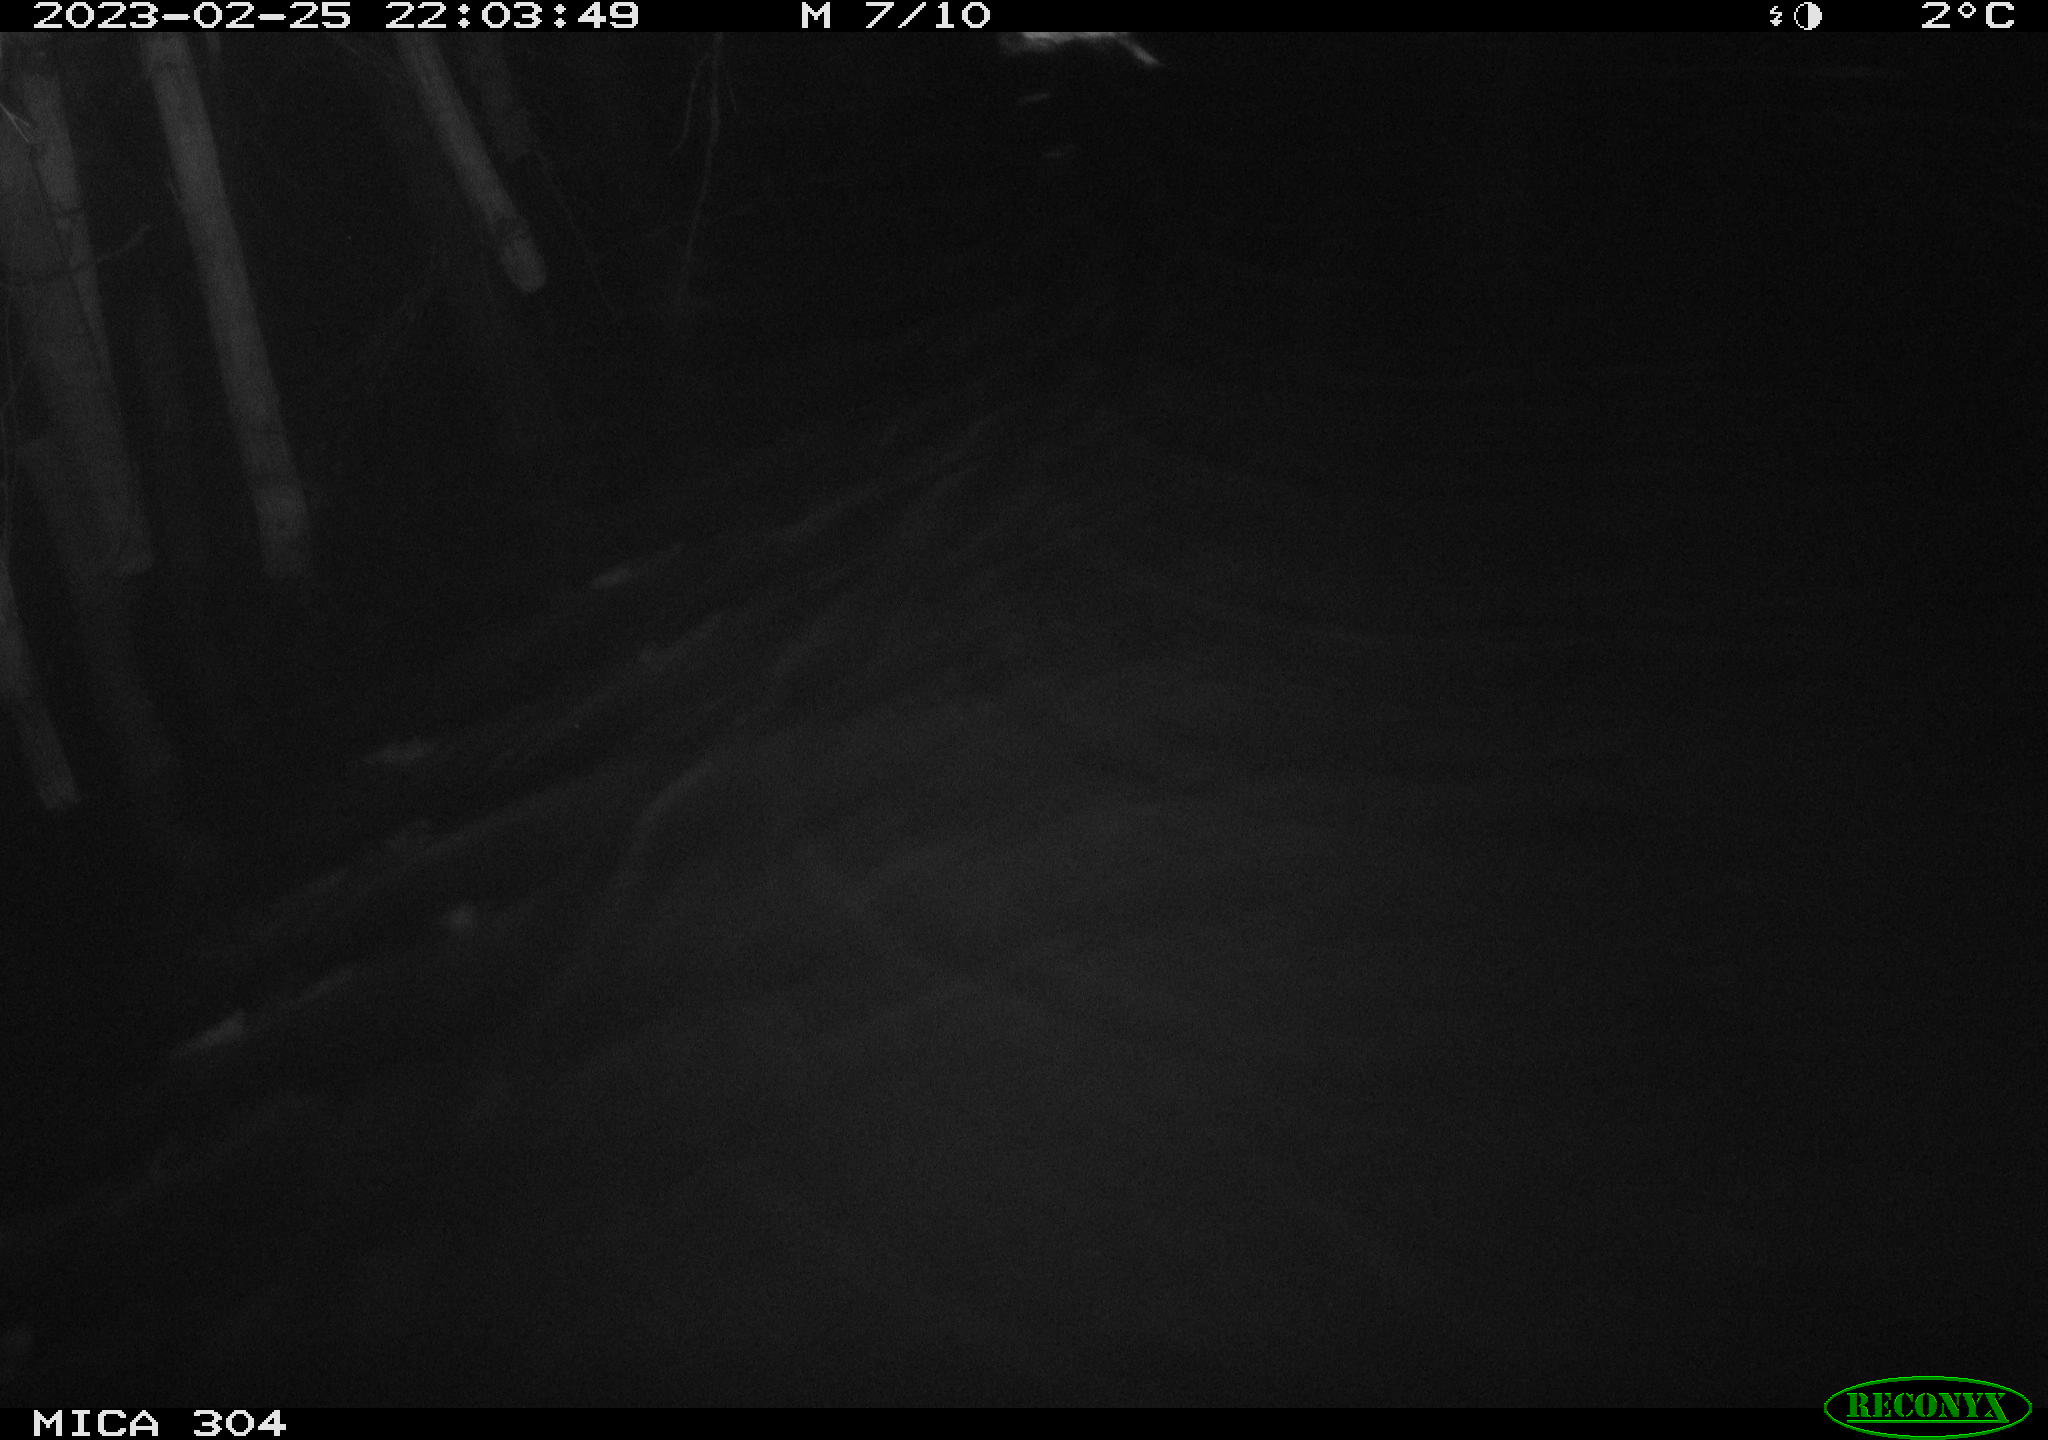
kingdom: Animalia
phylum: Chordata
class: Mammalia
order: Rodentia
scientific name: Rodentia
